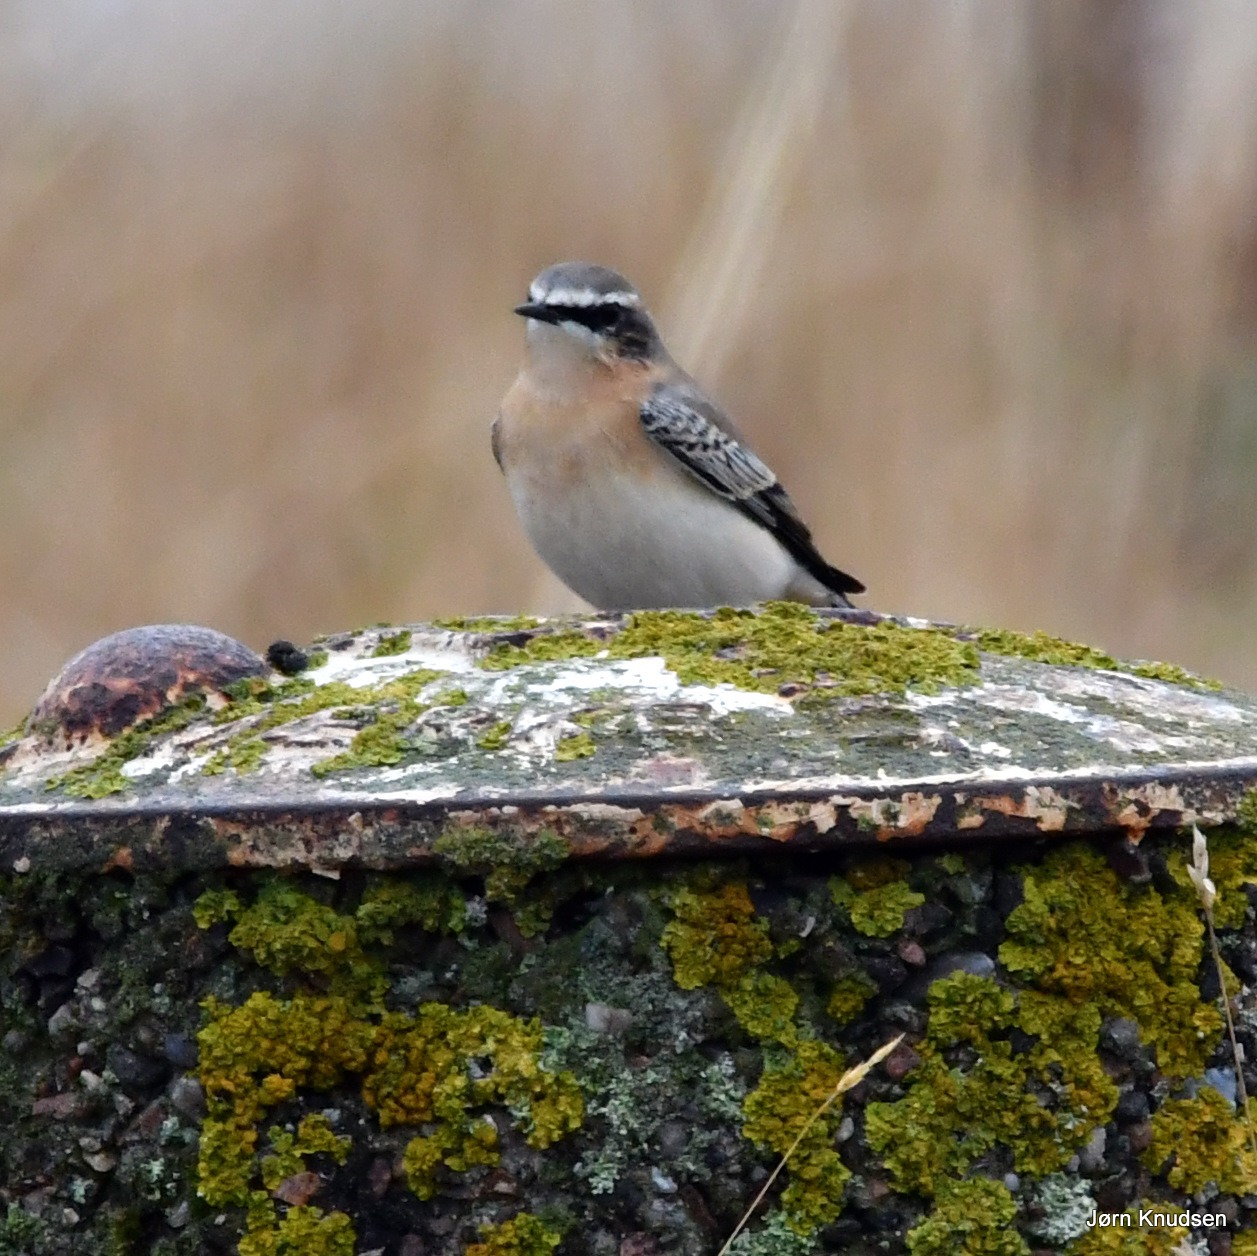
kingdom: Animalia
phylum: Chordata
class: Aves
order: Passeriformes
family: Muscicapidae
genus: Oenanthe
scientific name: Oenanthe oenanthe
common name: Stenpikker
